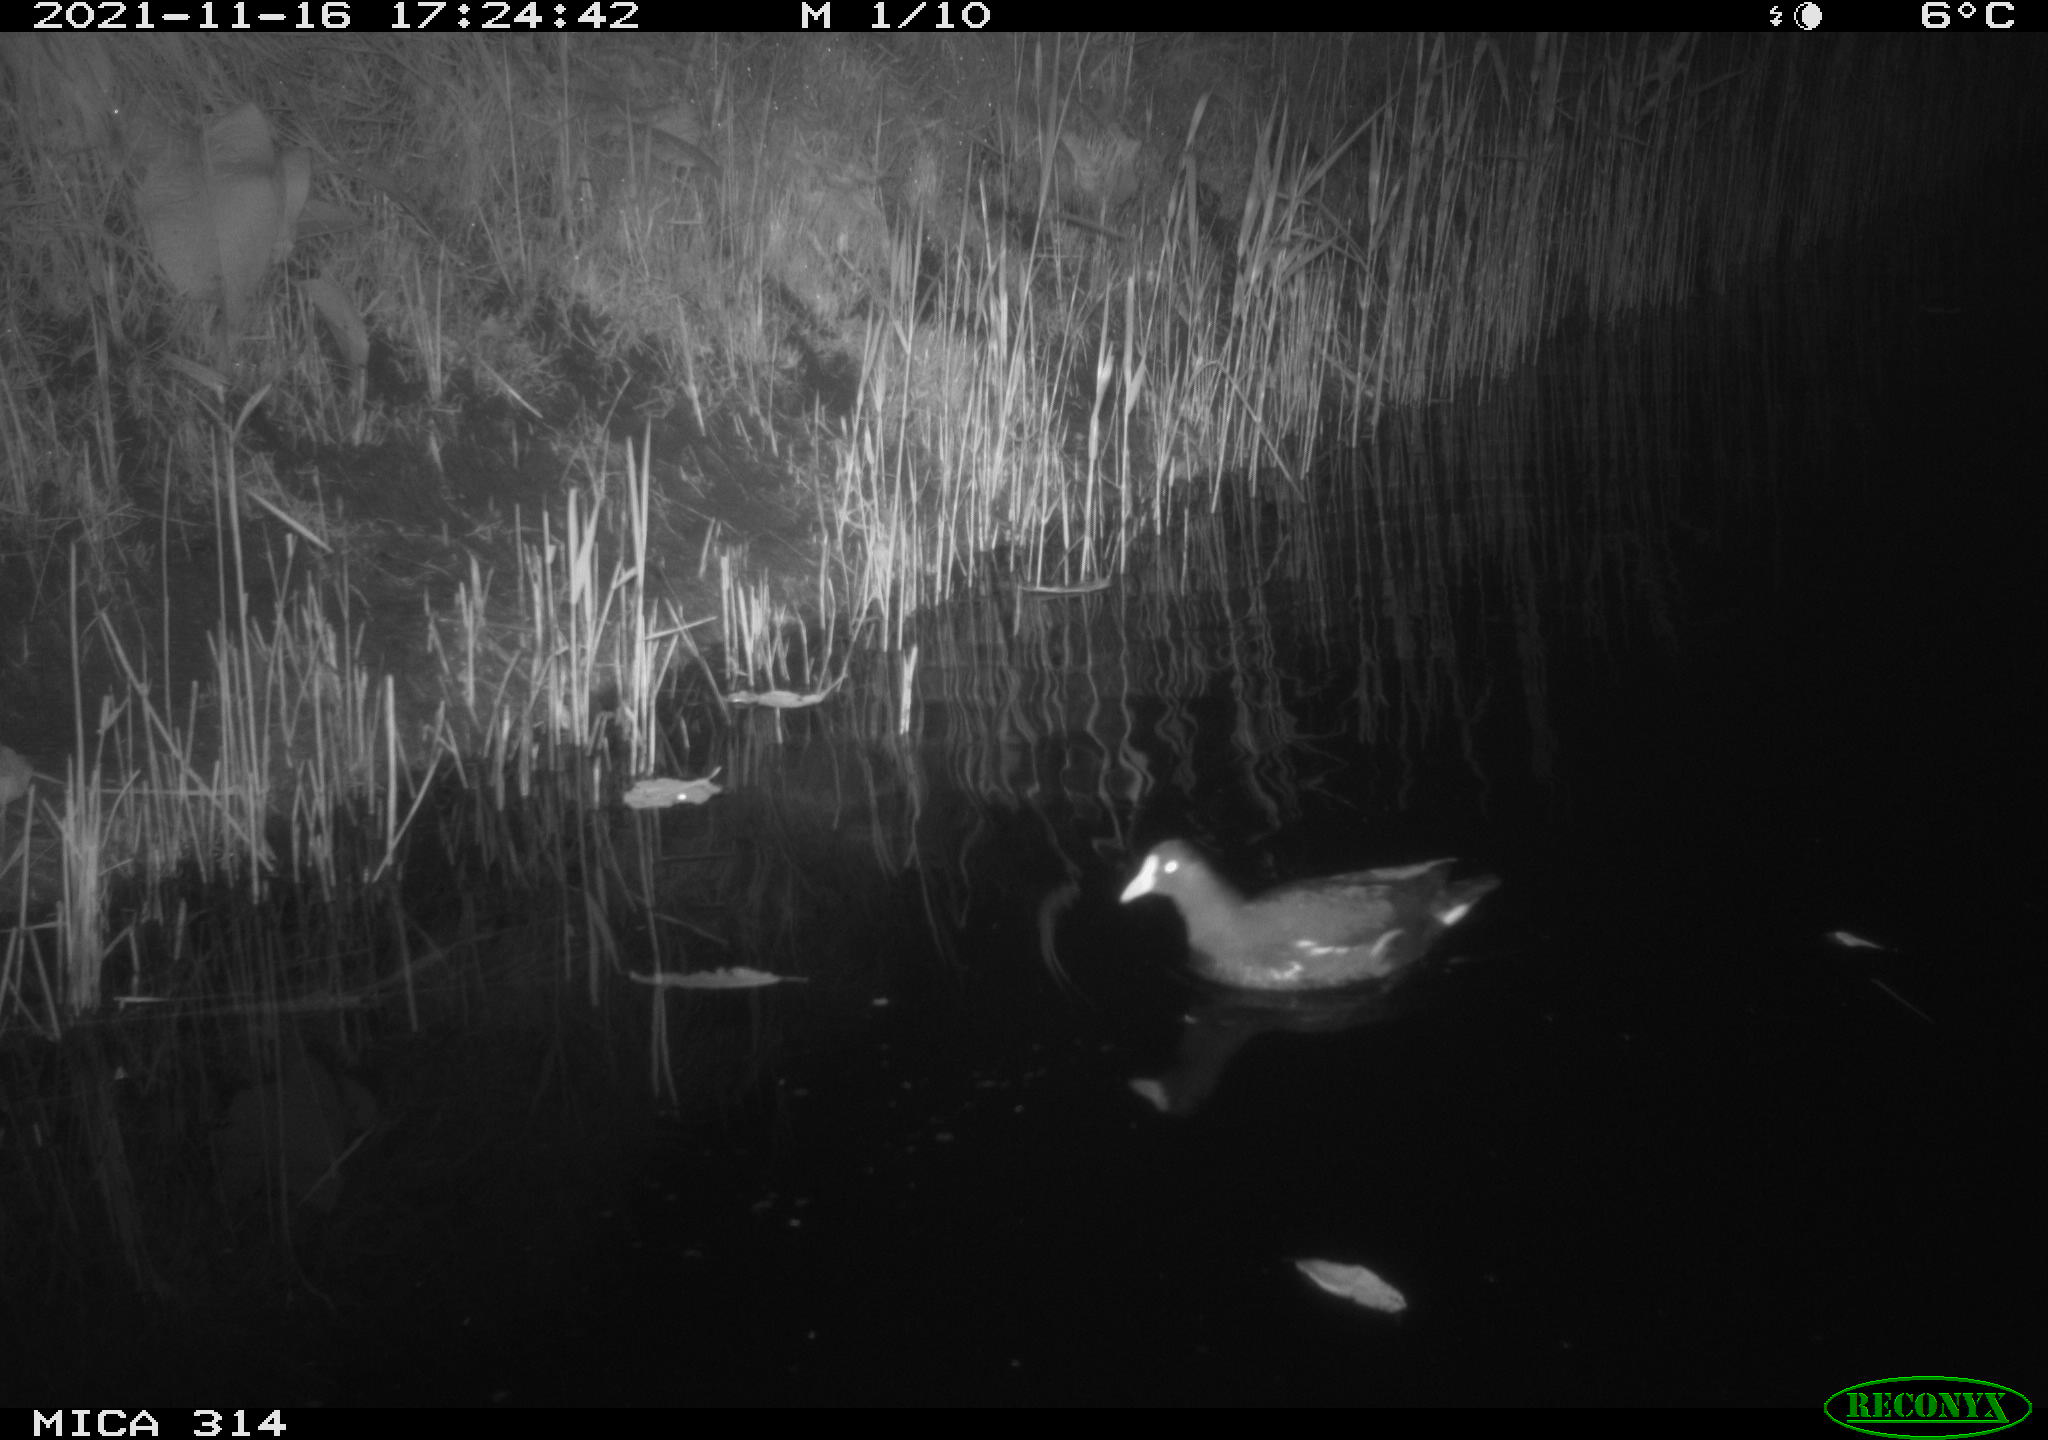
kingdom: Animalia
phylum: Chordata
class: Aves
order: Gruiformes
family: Rallidae
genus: Gallinula
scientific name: Gallinula chloropus
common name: Common moorhen
